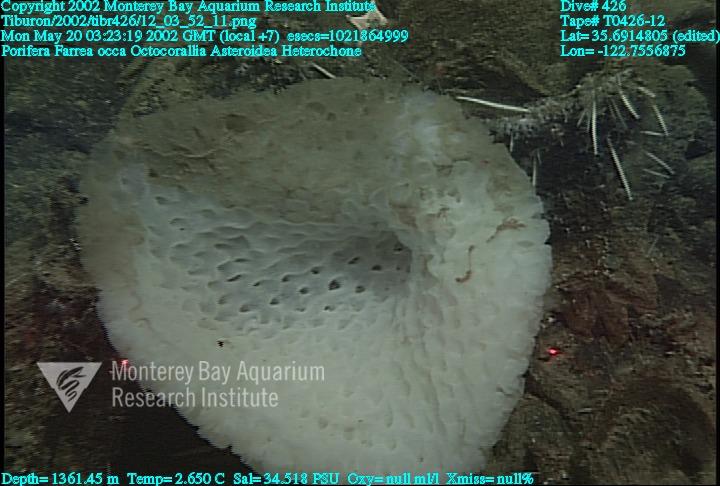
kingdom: Animalia
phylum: Porifera
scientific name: Porifera
